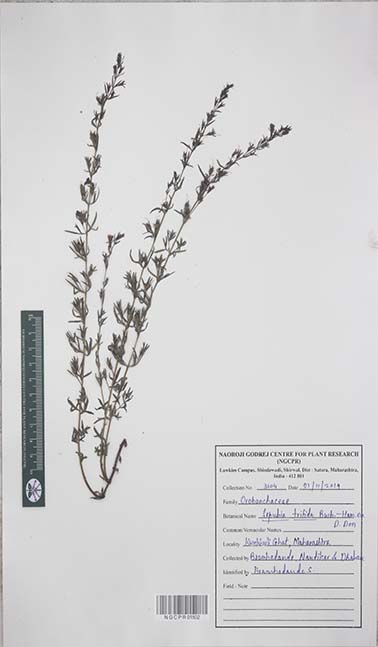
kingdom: Plantae
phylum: Tracheophyta
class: Magnoliopsida
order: Lamiales
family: Orobanchaceae
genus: Sopubia
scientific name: Sopubia trifida
